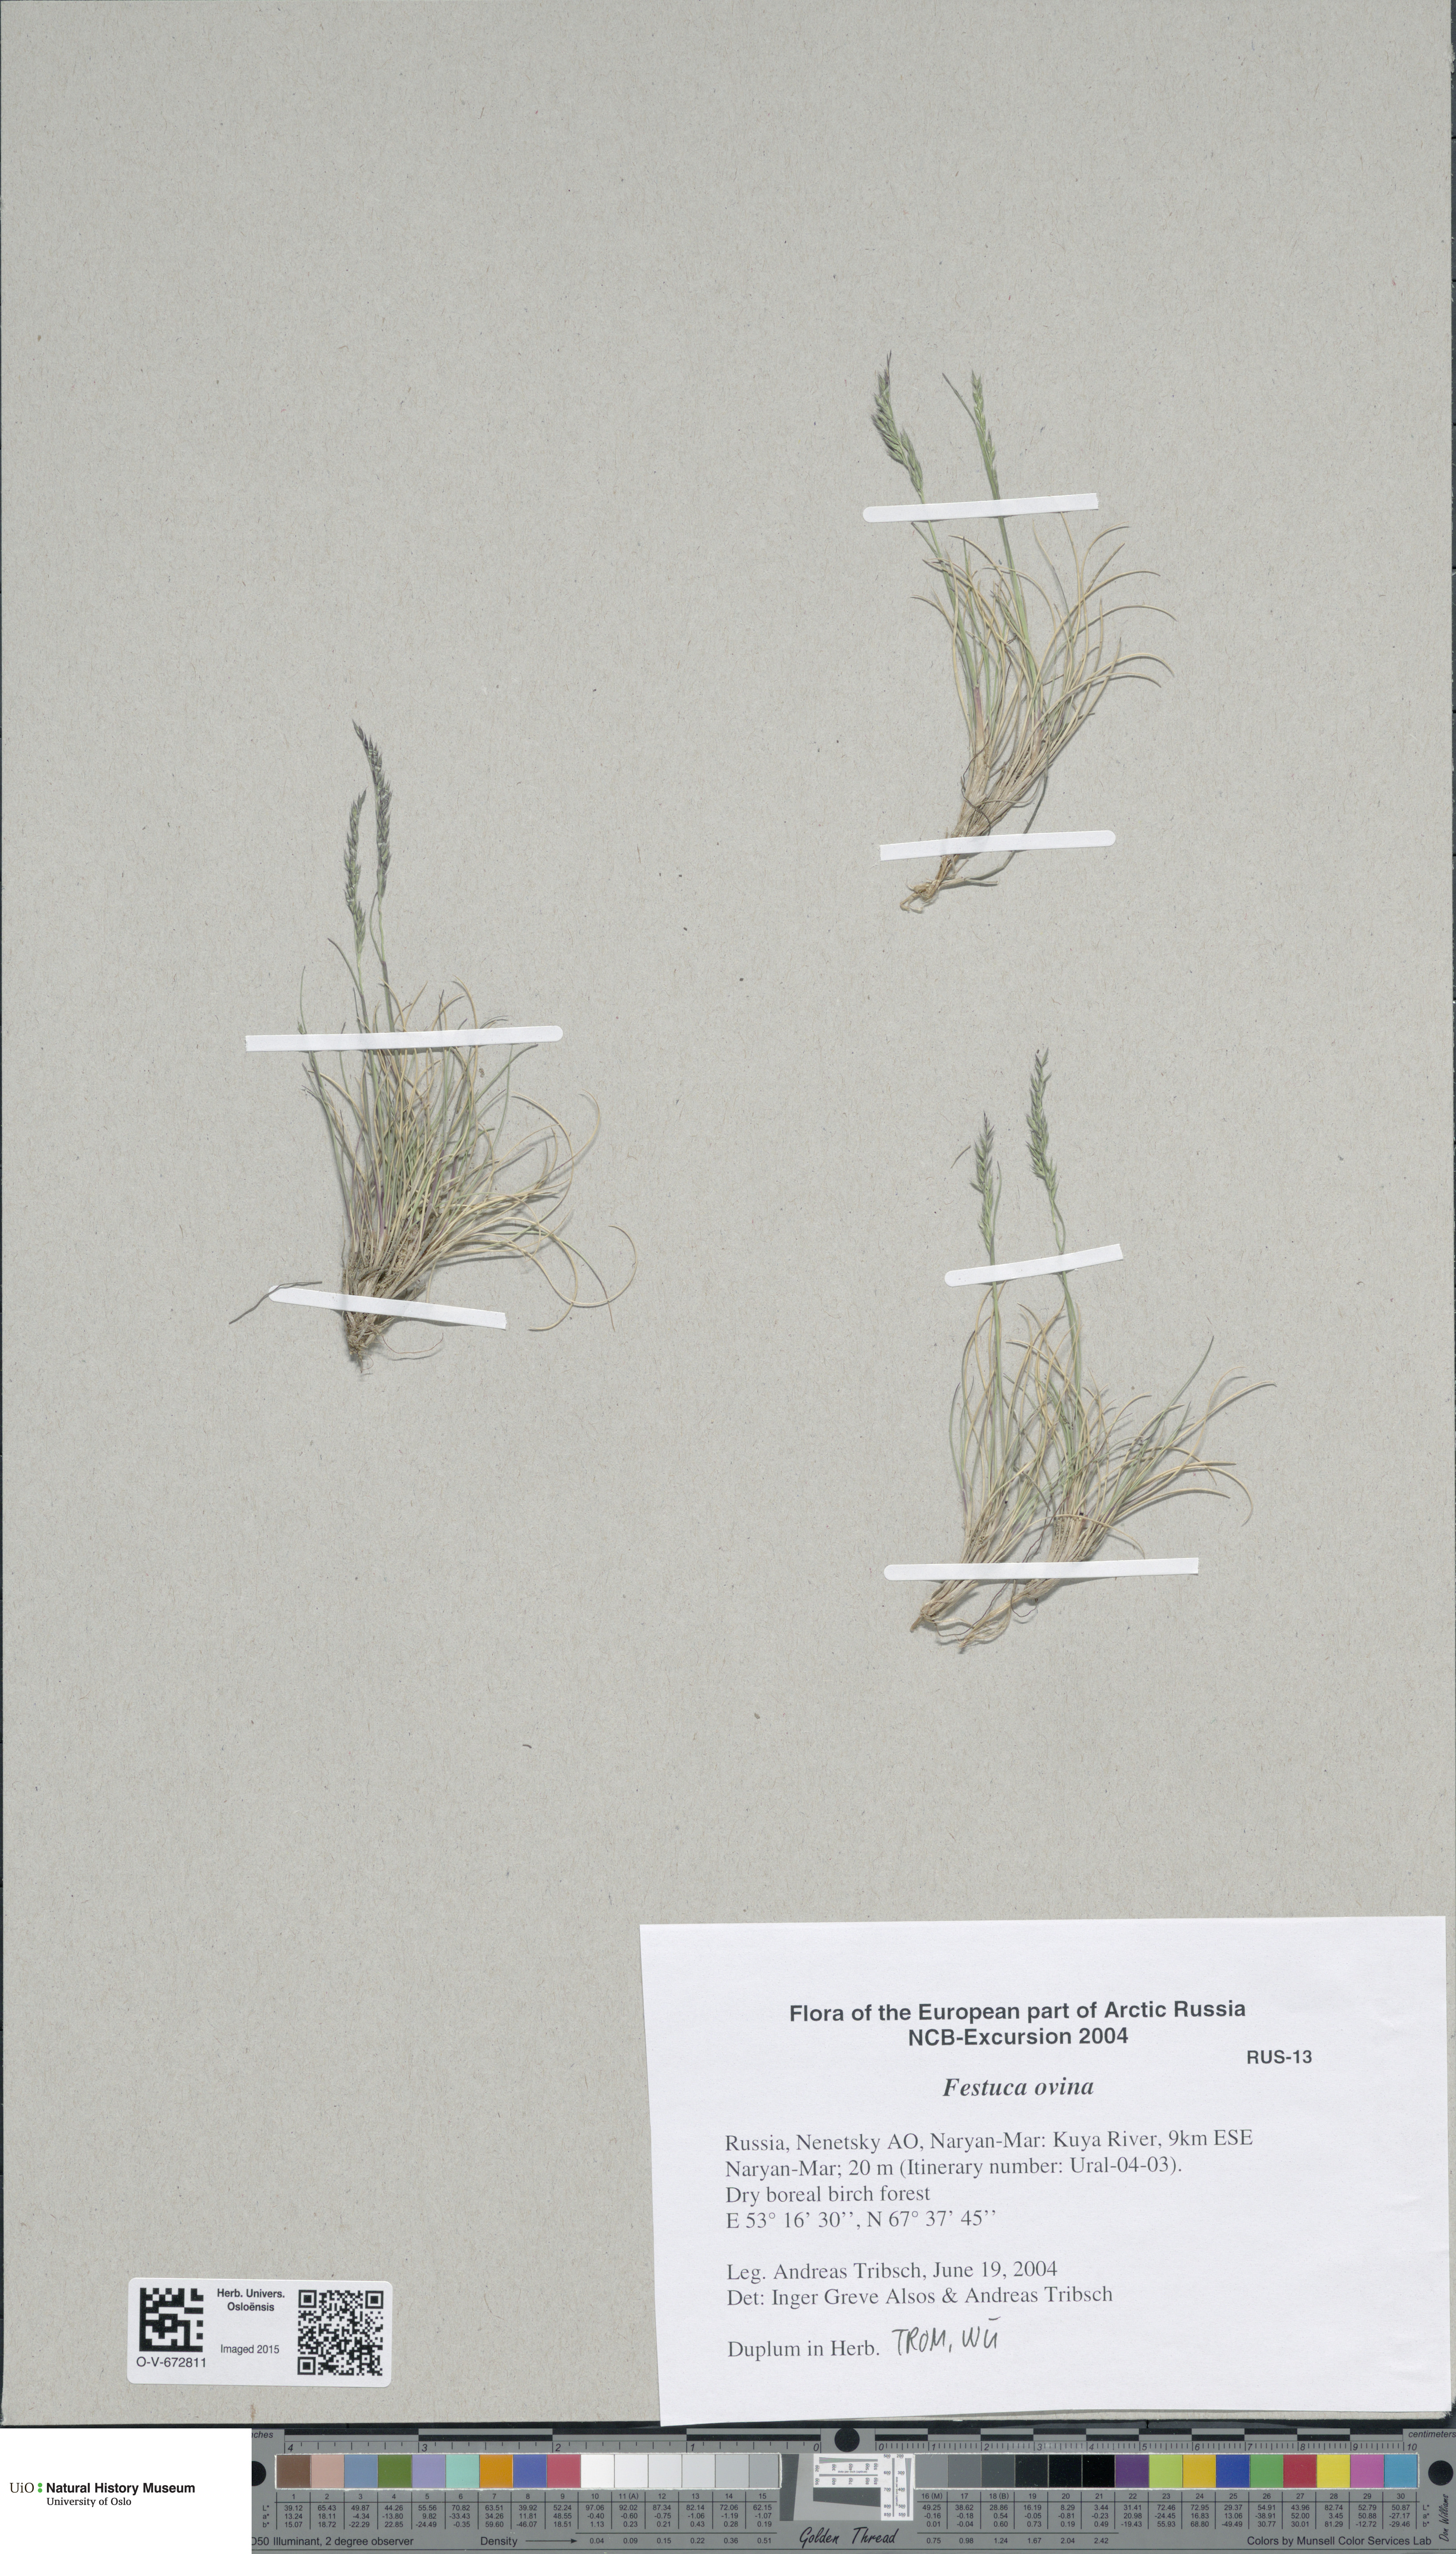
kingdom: Plantae
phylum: Tracheophyta
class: Liliopsida
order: Poales
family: Poaceae
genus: Festuca
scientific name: Festuca ovina
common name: Sheep fescue
